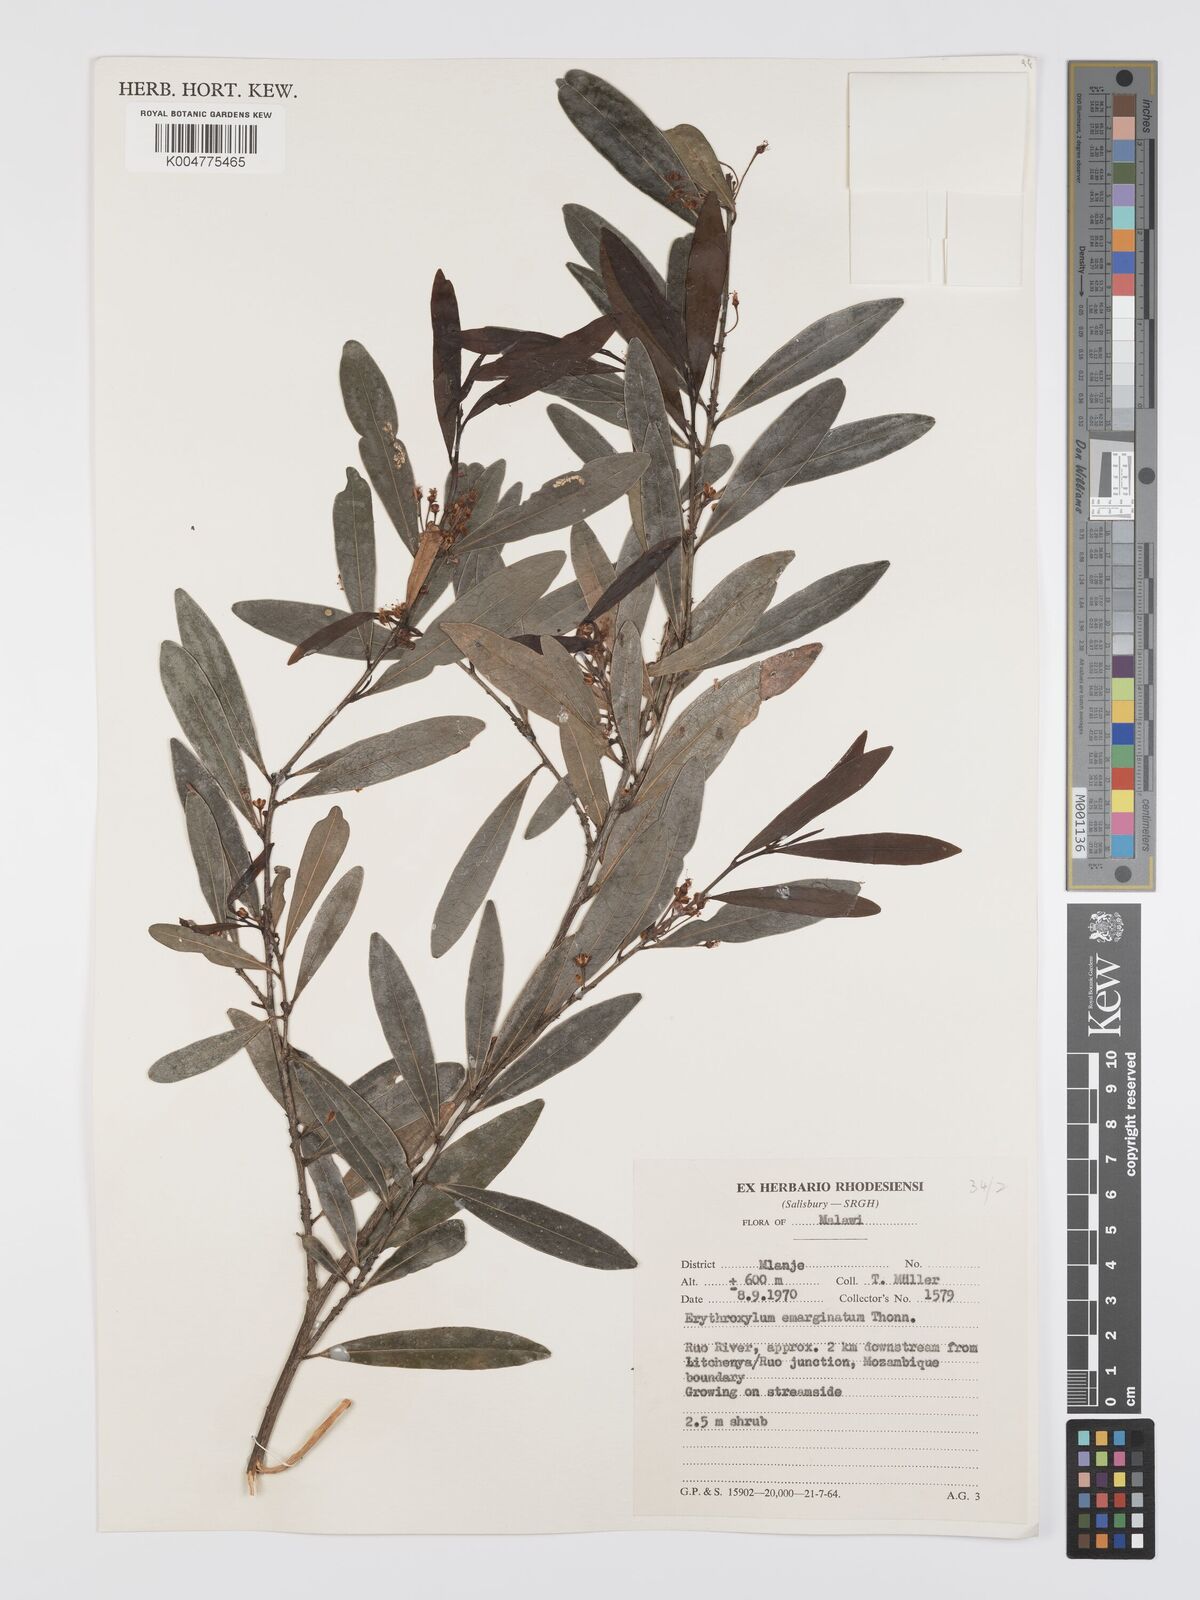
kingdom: Plantae
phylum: Tracheophyta
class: Magnoliopsida
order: Malpighiales
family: Erythroxylaceae
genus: Erythroxylum
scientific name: Erythroxylum emarginatum
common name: African coca-tree
